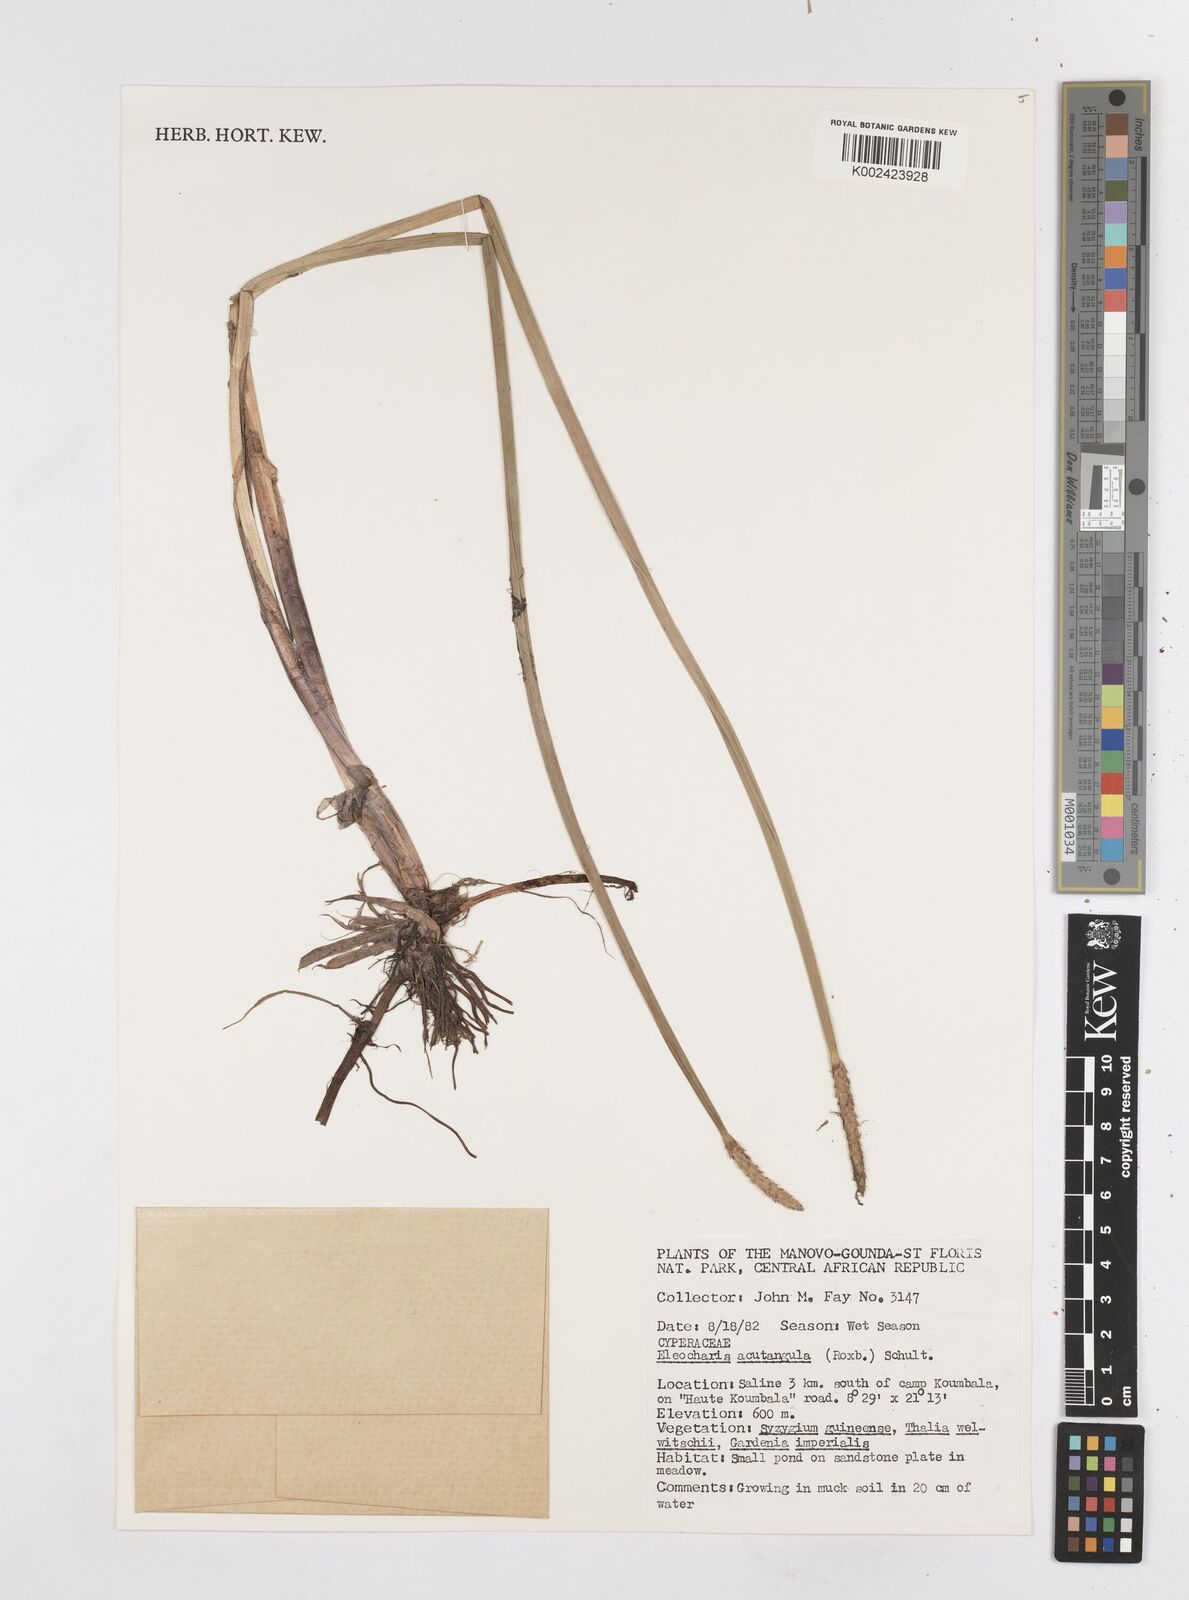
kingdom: Plantae
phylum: Tracheophyta
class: Liliopsida
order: Poales
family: Cyperaceae
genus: Eleocharis
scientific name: Eleocharis acutangula
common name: Acute spikerush
